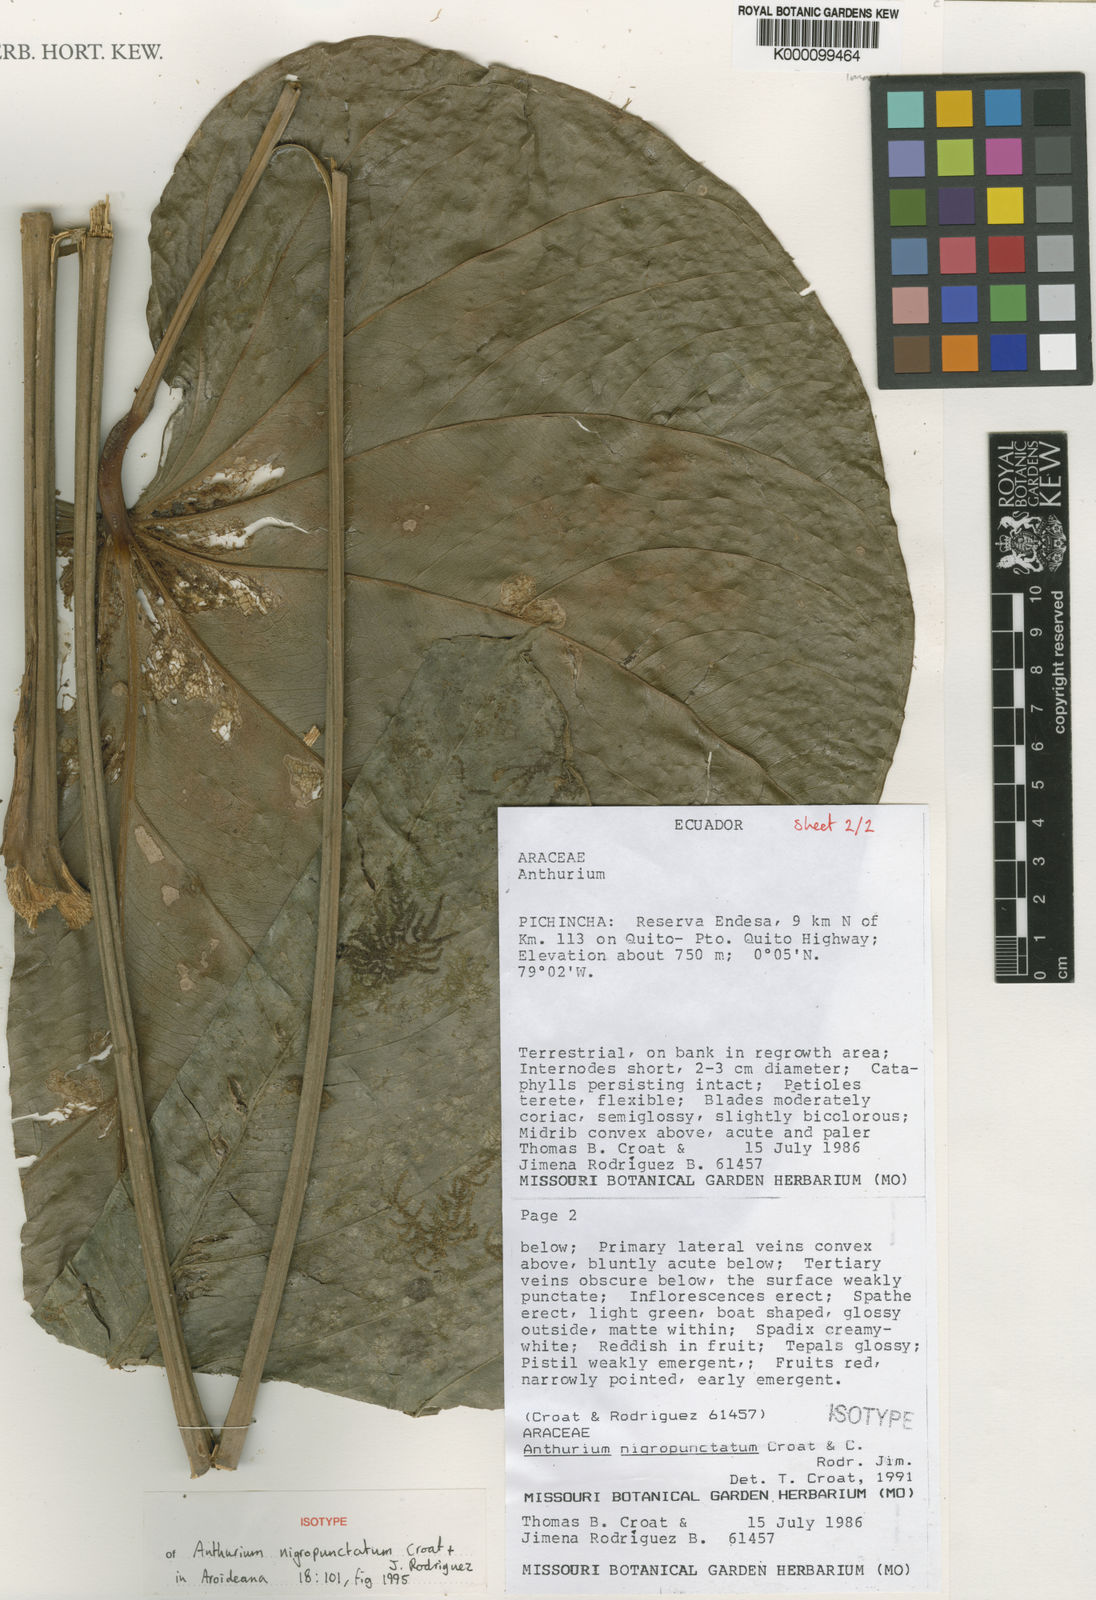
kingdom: Plantae
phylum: Tracheophyta
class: Liliopsida
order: Alismatales
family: Araceae
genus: Anthurium
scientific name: Anthurium nigropunctatum
